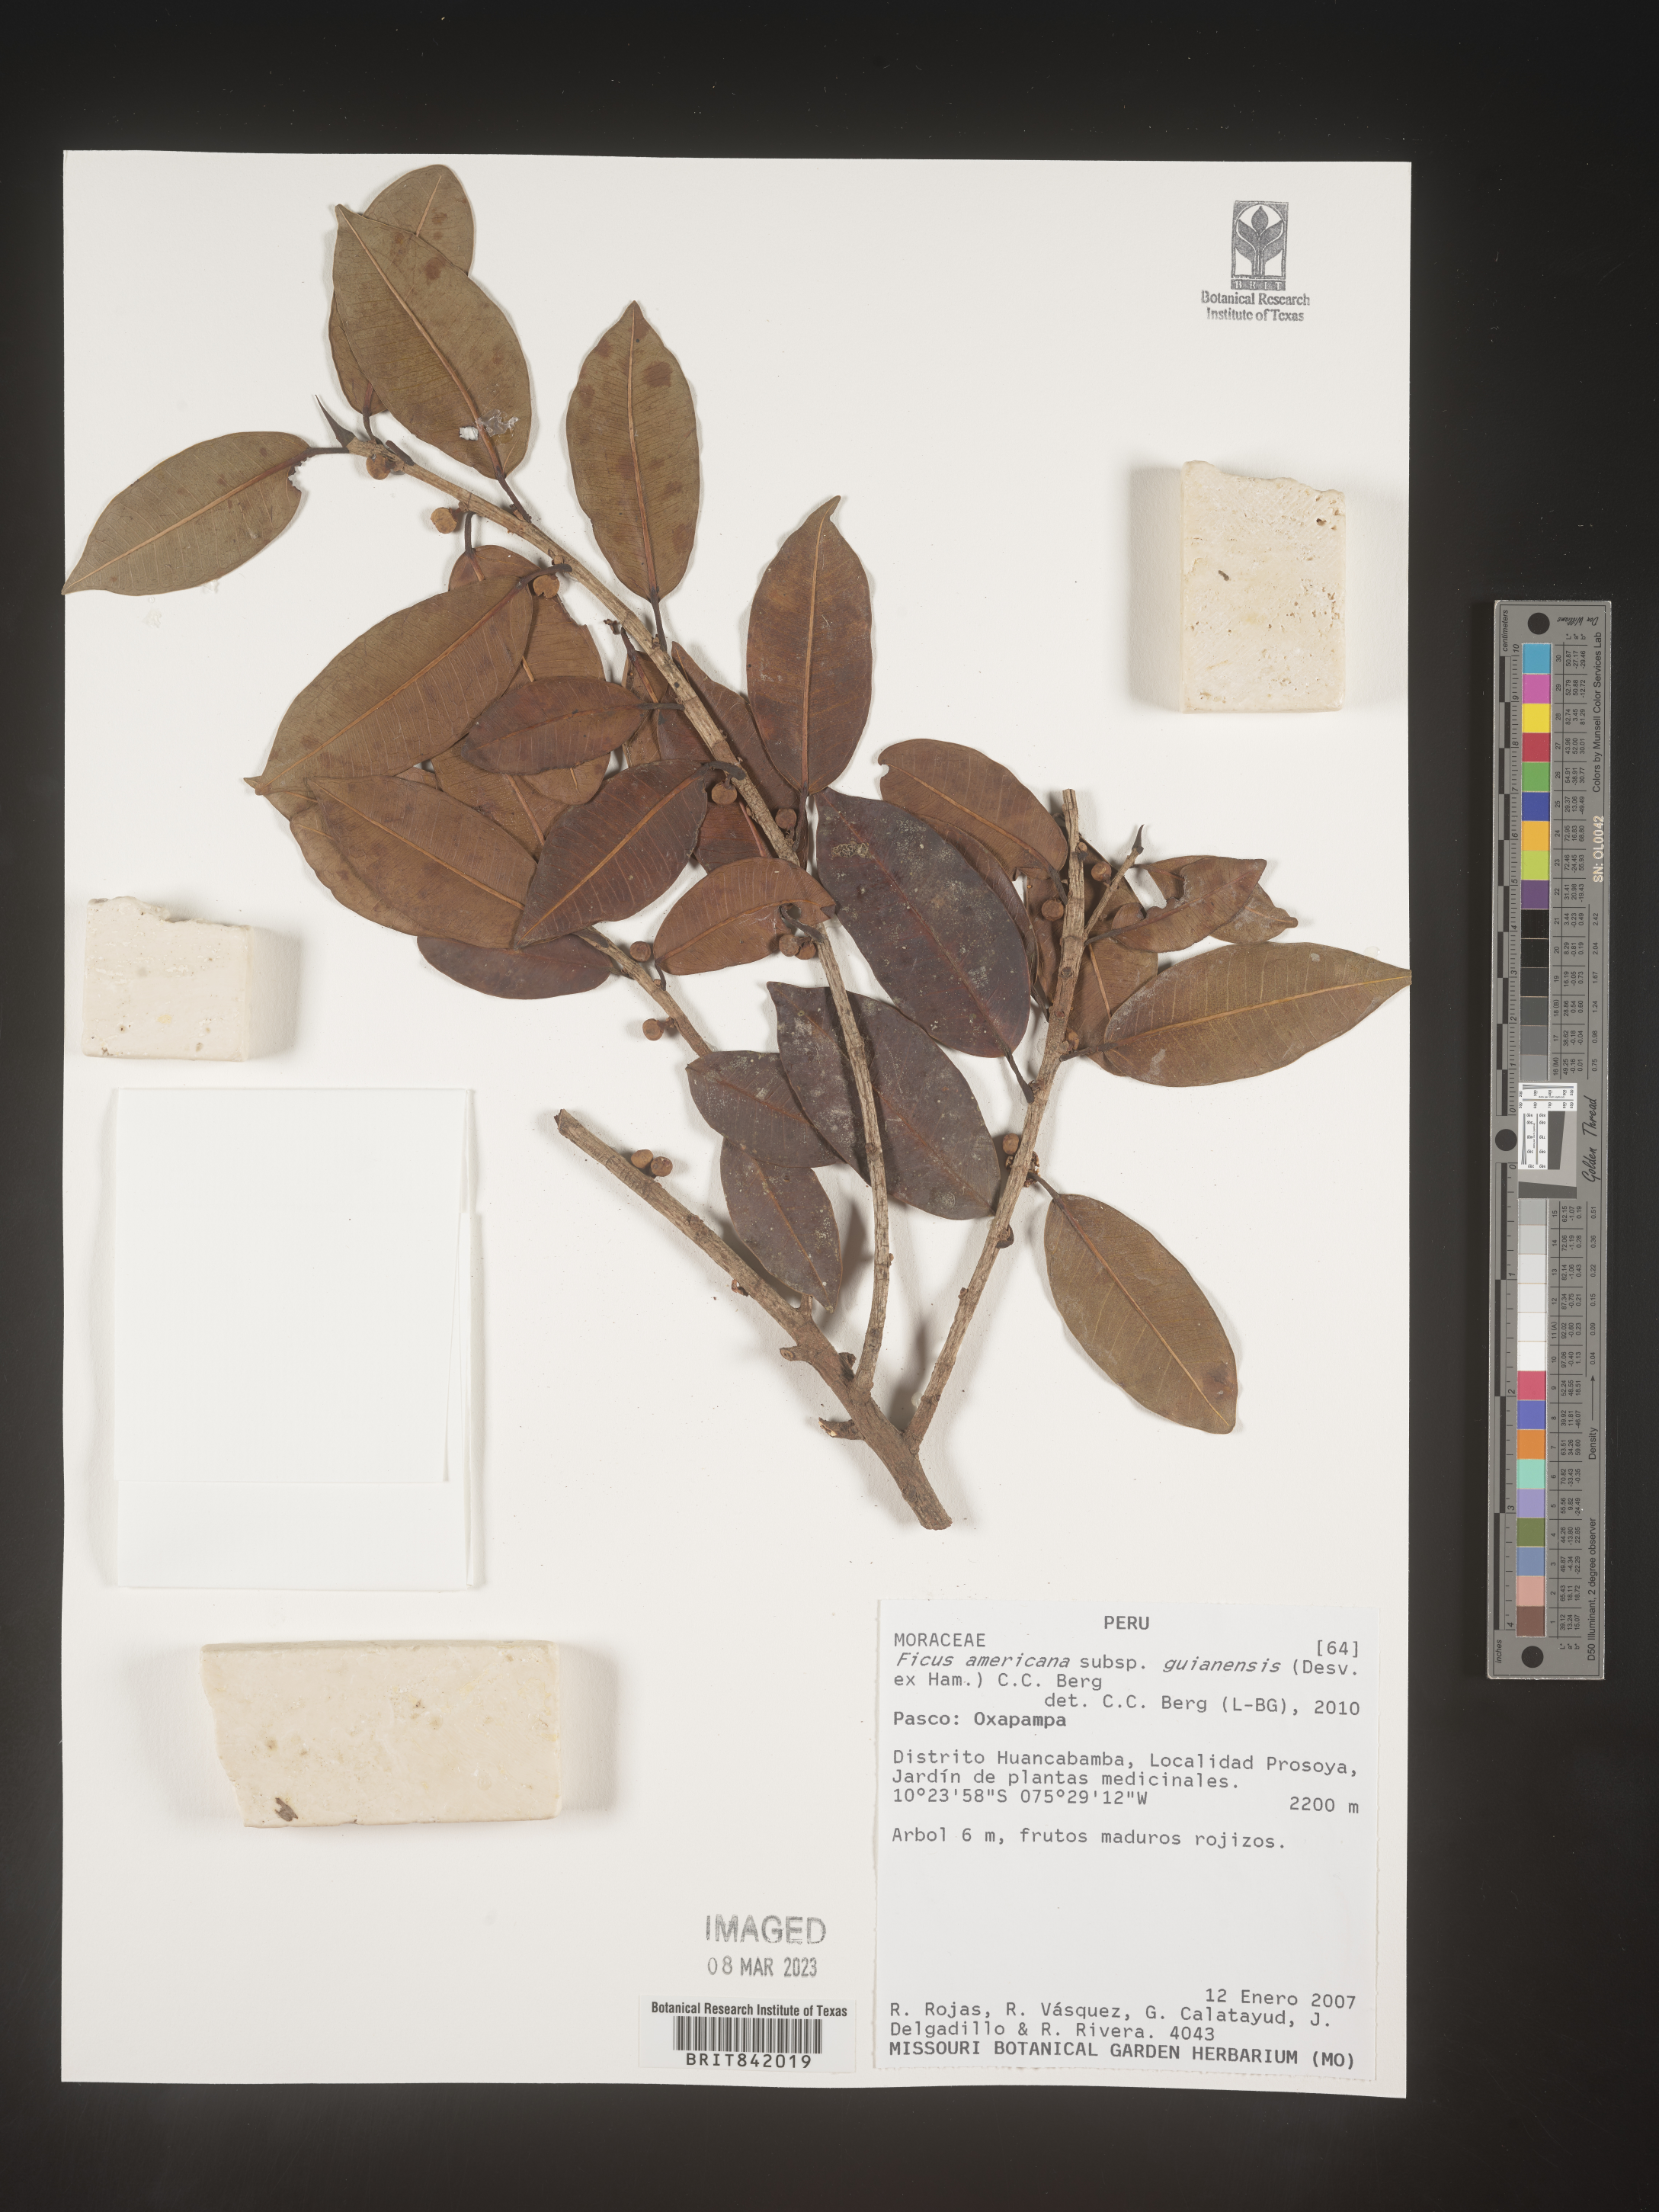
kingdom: Plantae
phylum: Tracheophyta
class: Magnoliopsida
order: Rosales
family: Moraceae
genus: Ficus
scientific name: Ficus americana
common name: Jamaican cherry fig
